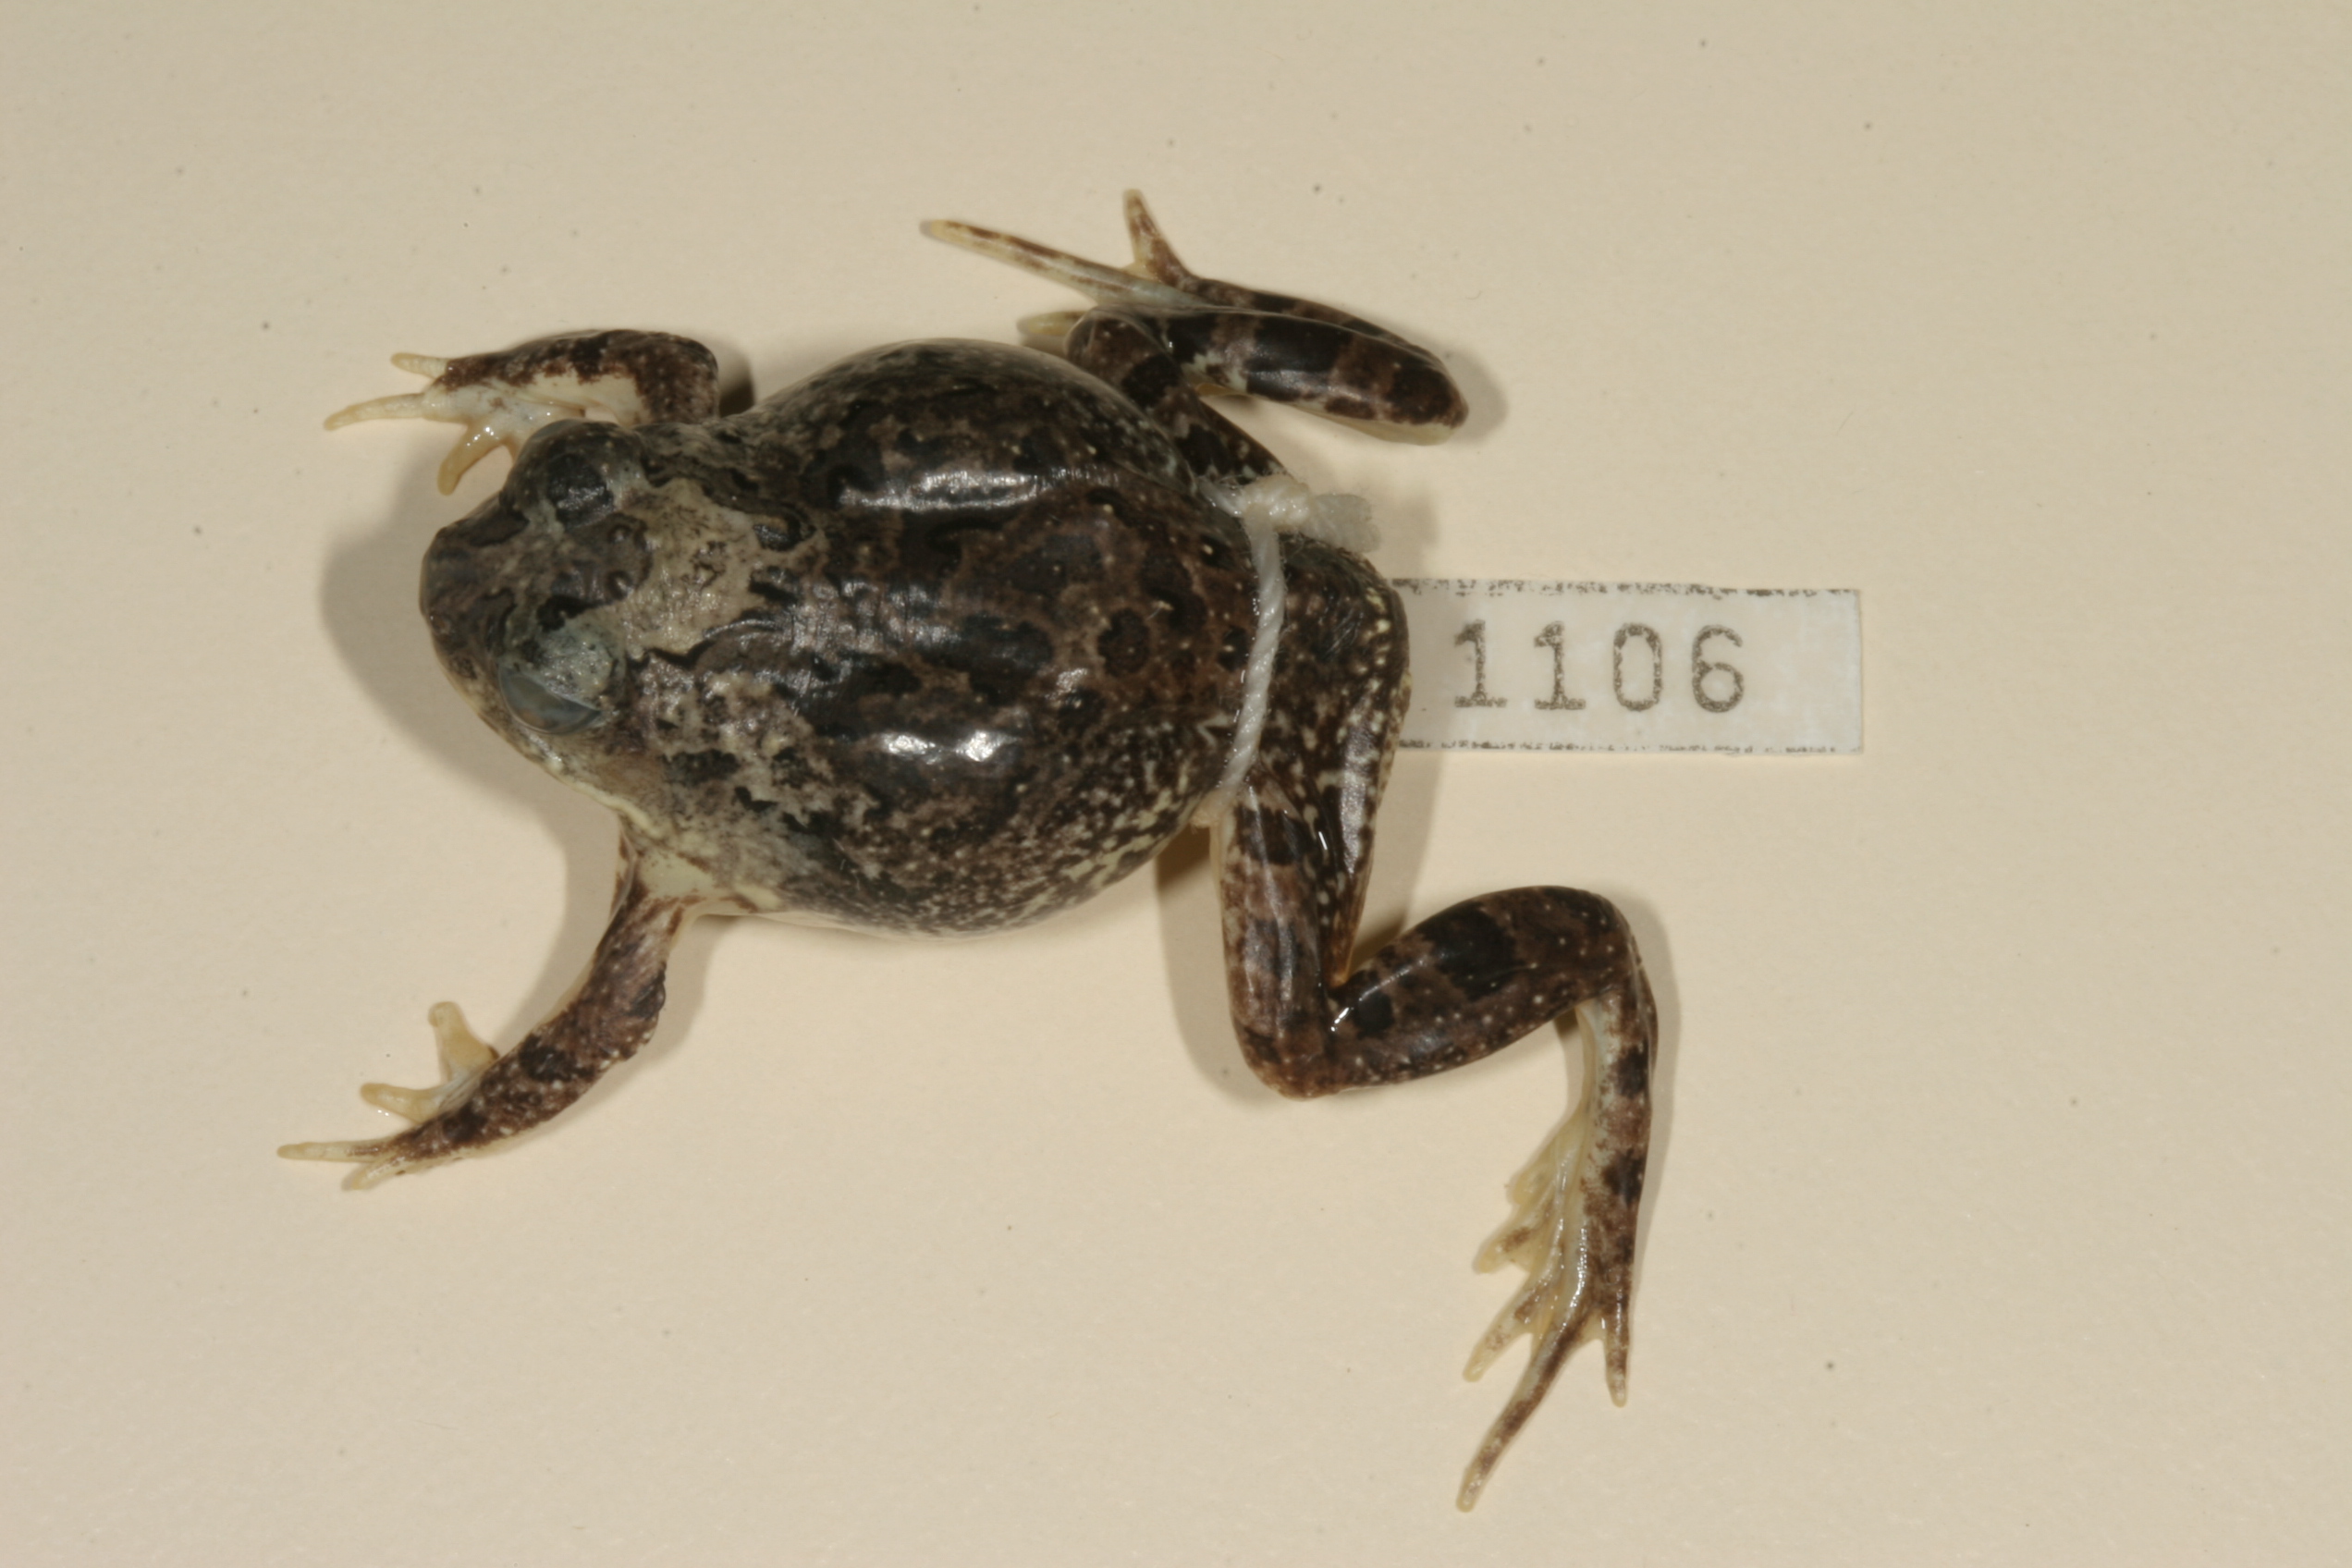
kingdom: Animalia
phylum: Chordata
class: Amphibia
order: Anura
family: Pyxicephalidae
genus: Tomopterna
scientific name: Tomopterna cryptotis
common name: Catequero bullfrog
